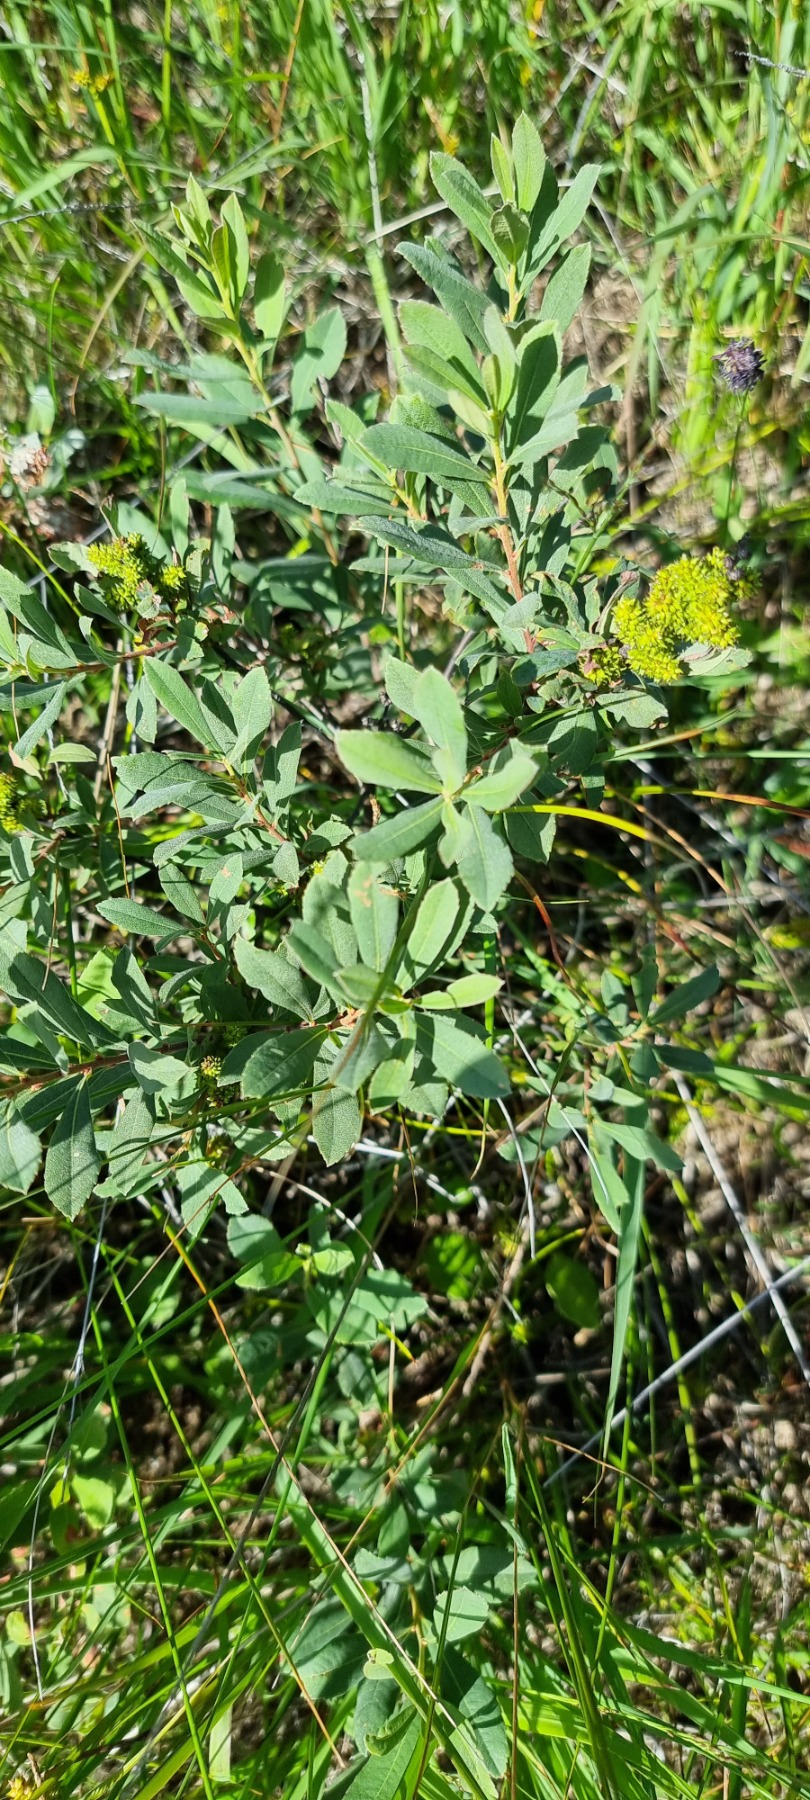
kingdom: Plantae
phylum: Tracheophyta
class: Magnoliopsida
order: Fagales
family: Myricaceae
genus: Myrica
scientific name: Myrica gale
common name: Pors
